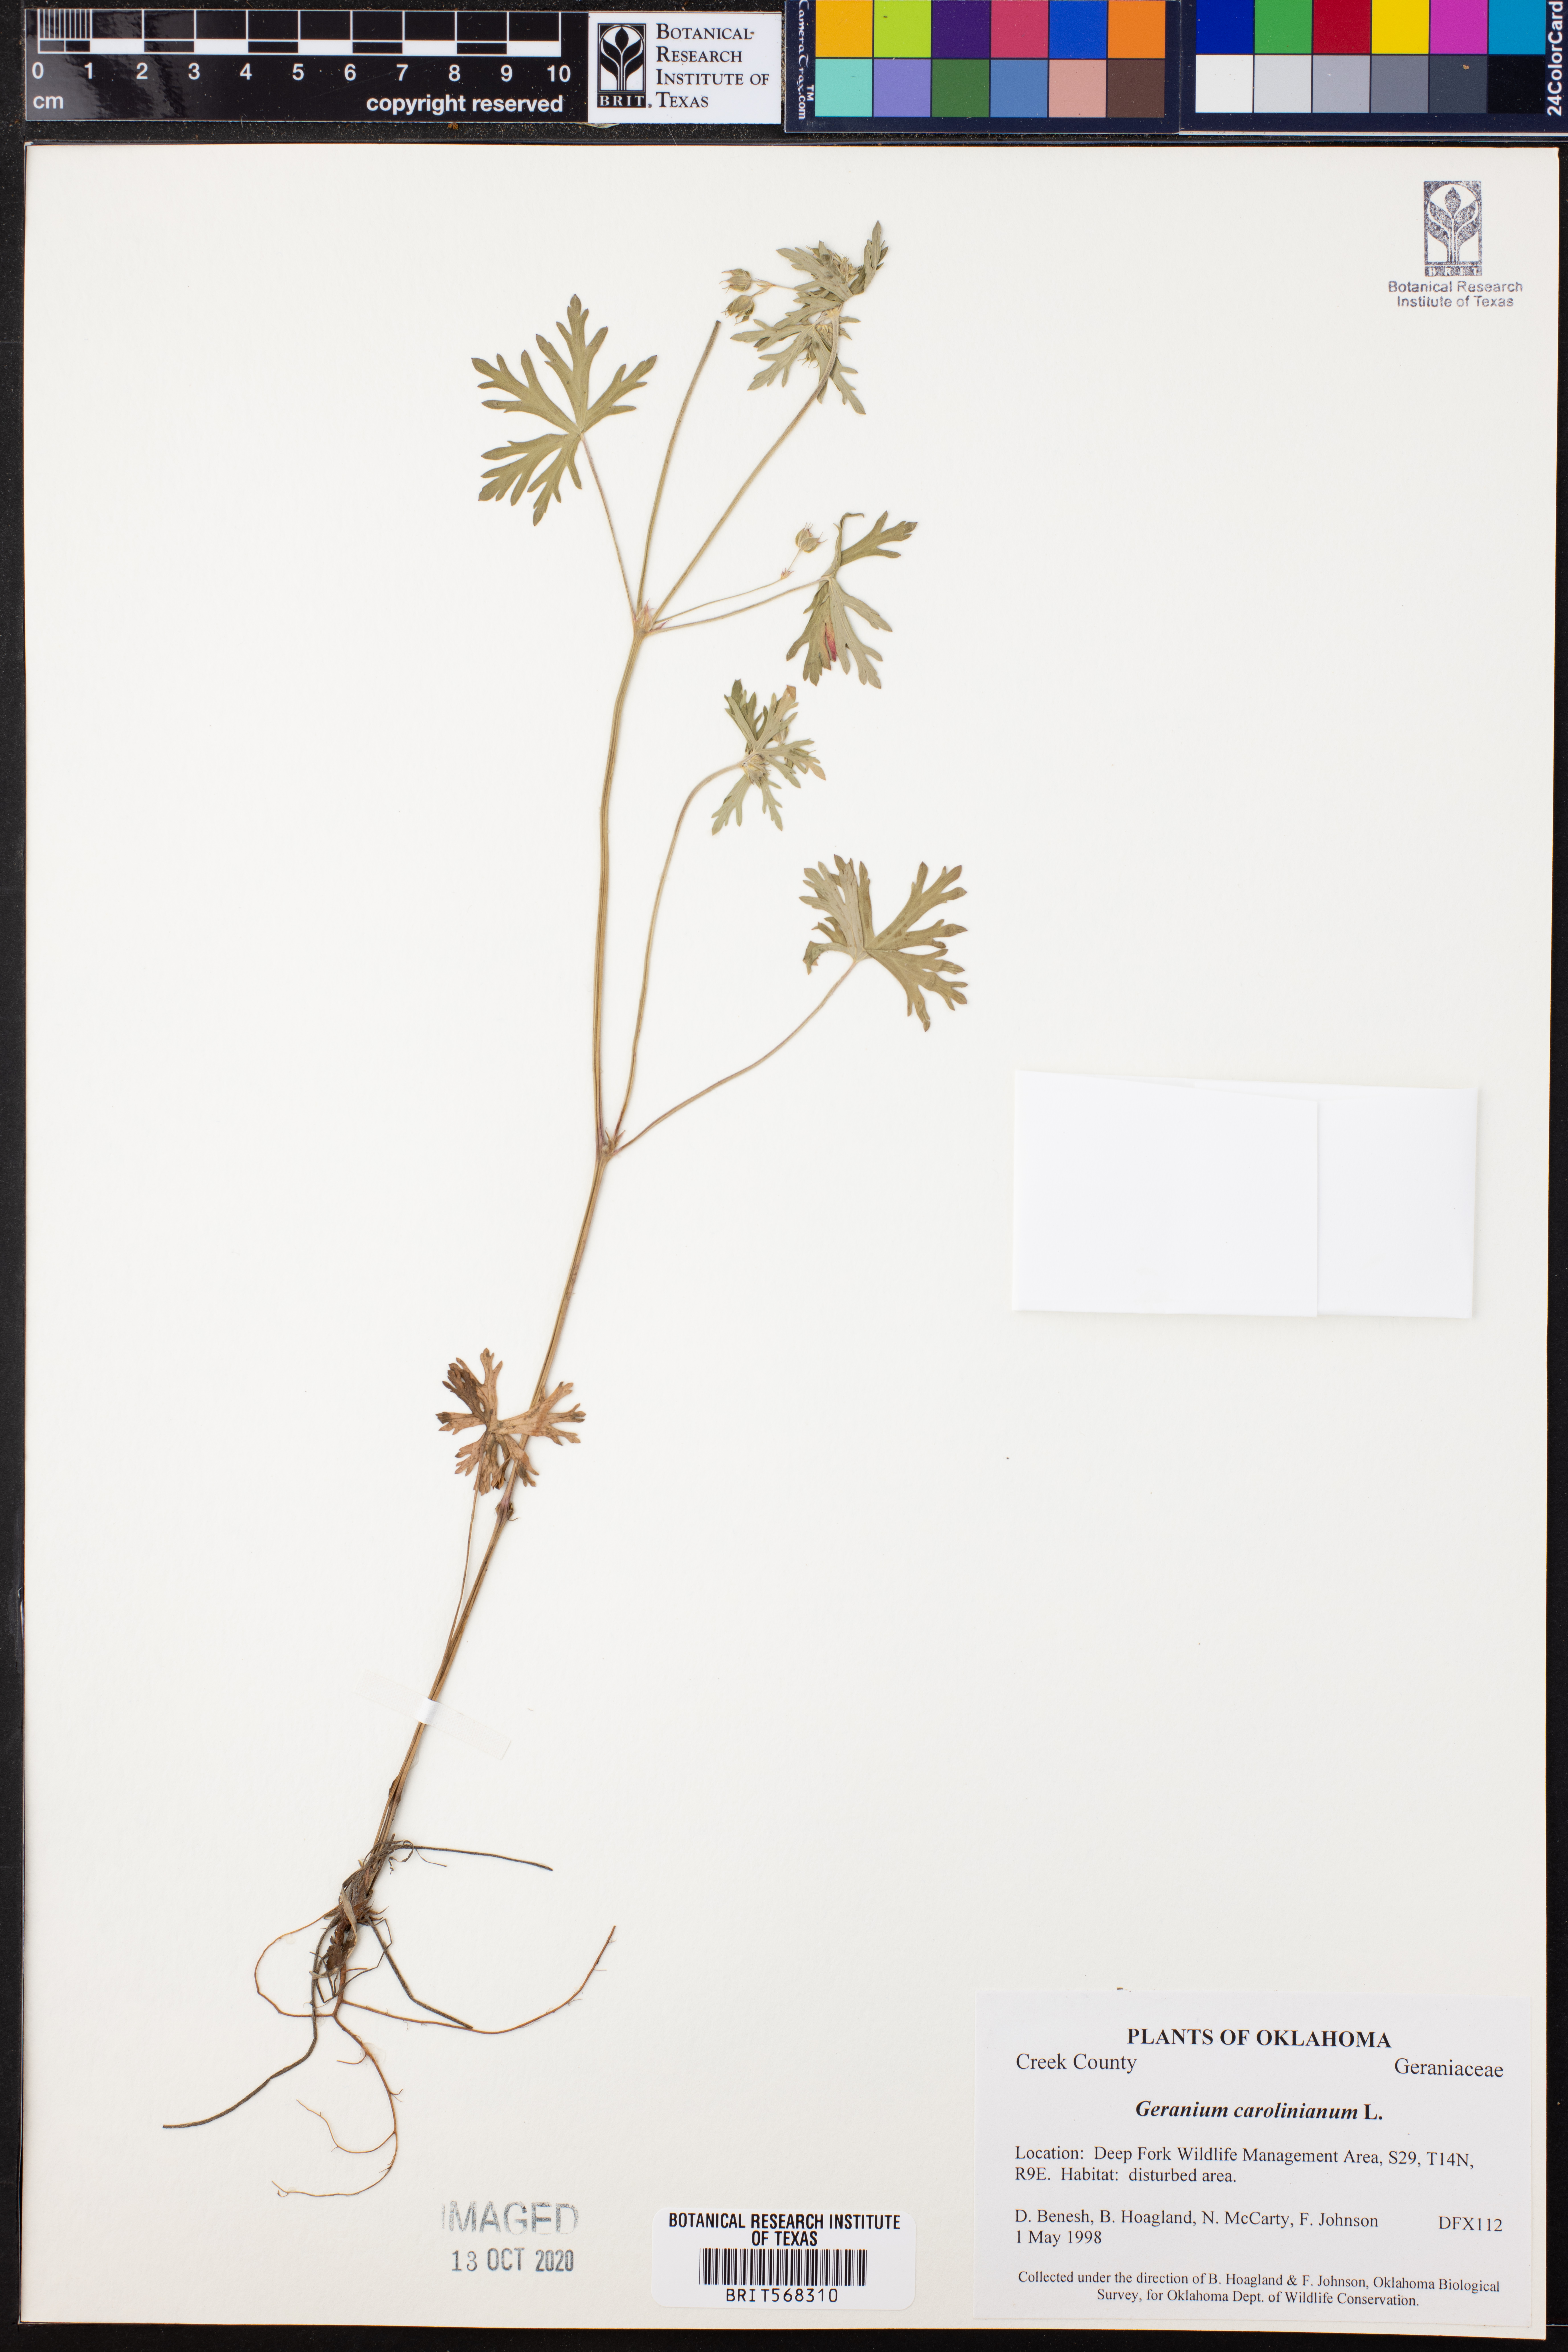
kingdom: Plantae
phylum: Tracheophyta
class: Magnoliopsida
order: Geraniales
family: Geraniaceae
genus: Geranium
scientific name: Geranium carolinianum
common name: Carolina crane's-bill
